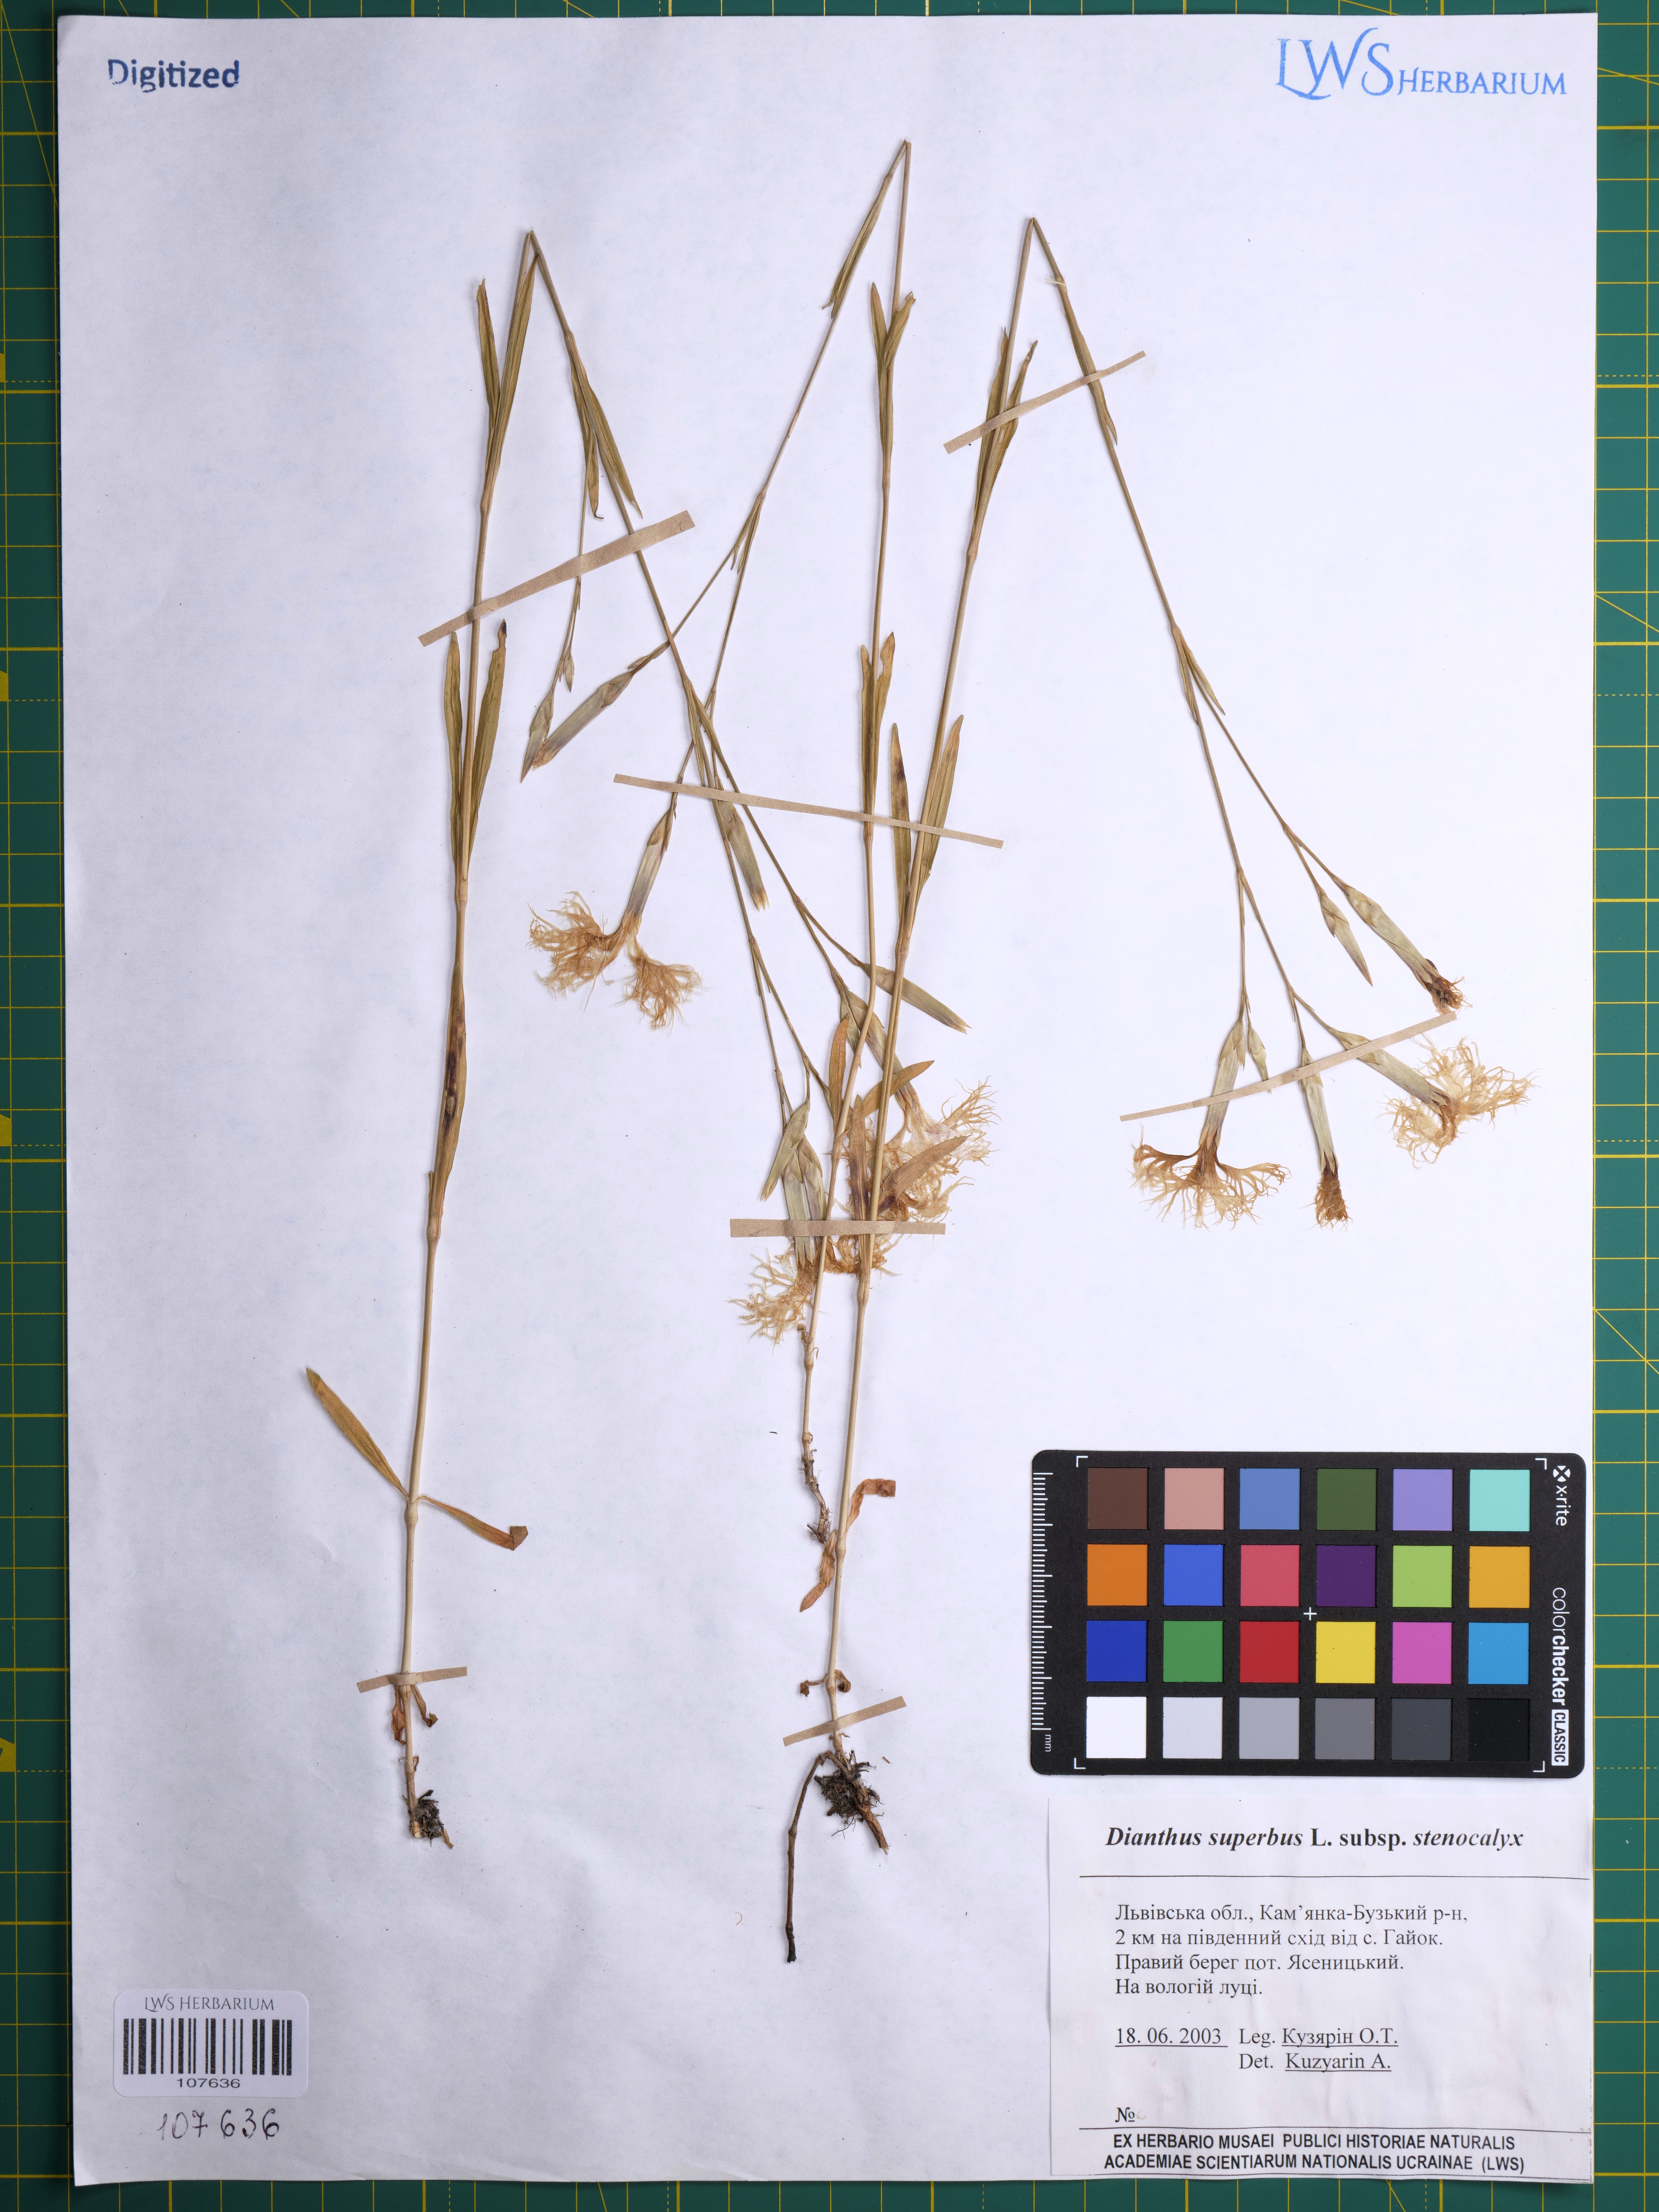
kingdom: Plantae
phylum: Tracheophyta
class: Magnoliopsida
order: Caryophyllales
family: Caryophyllaceae
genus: Dianthus
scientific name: Dianthus superbus
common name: Fringed pink
